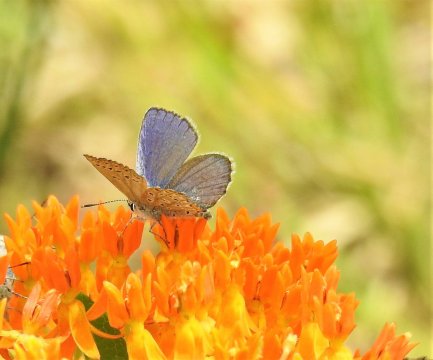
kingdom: Animalia
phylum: Arthropoda
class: Insecta
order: Lepidoptera
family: Lycaenidae
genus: Plebejus
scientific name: Plebejus samuelis
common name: Karner Blue
